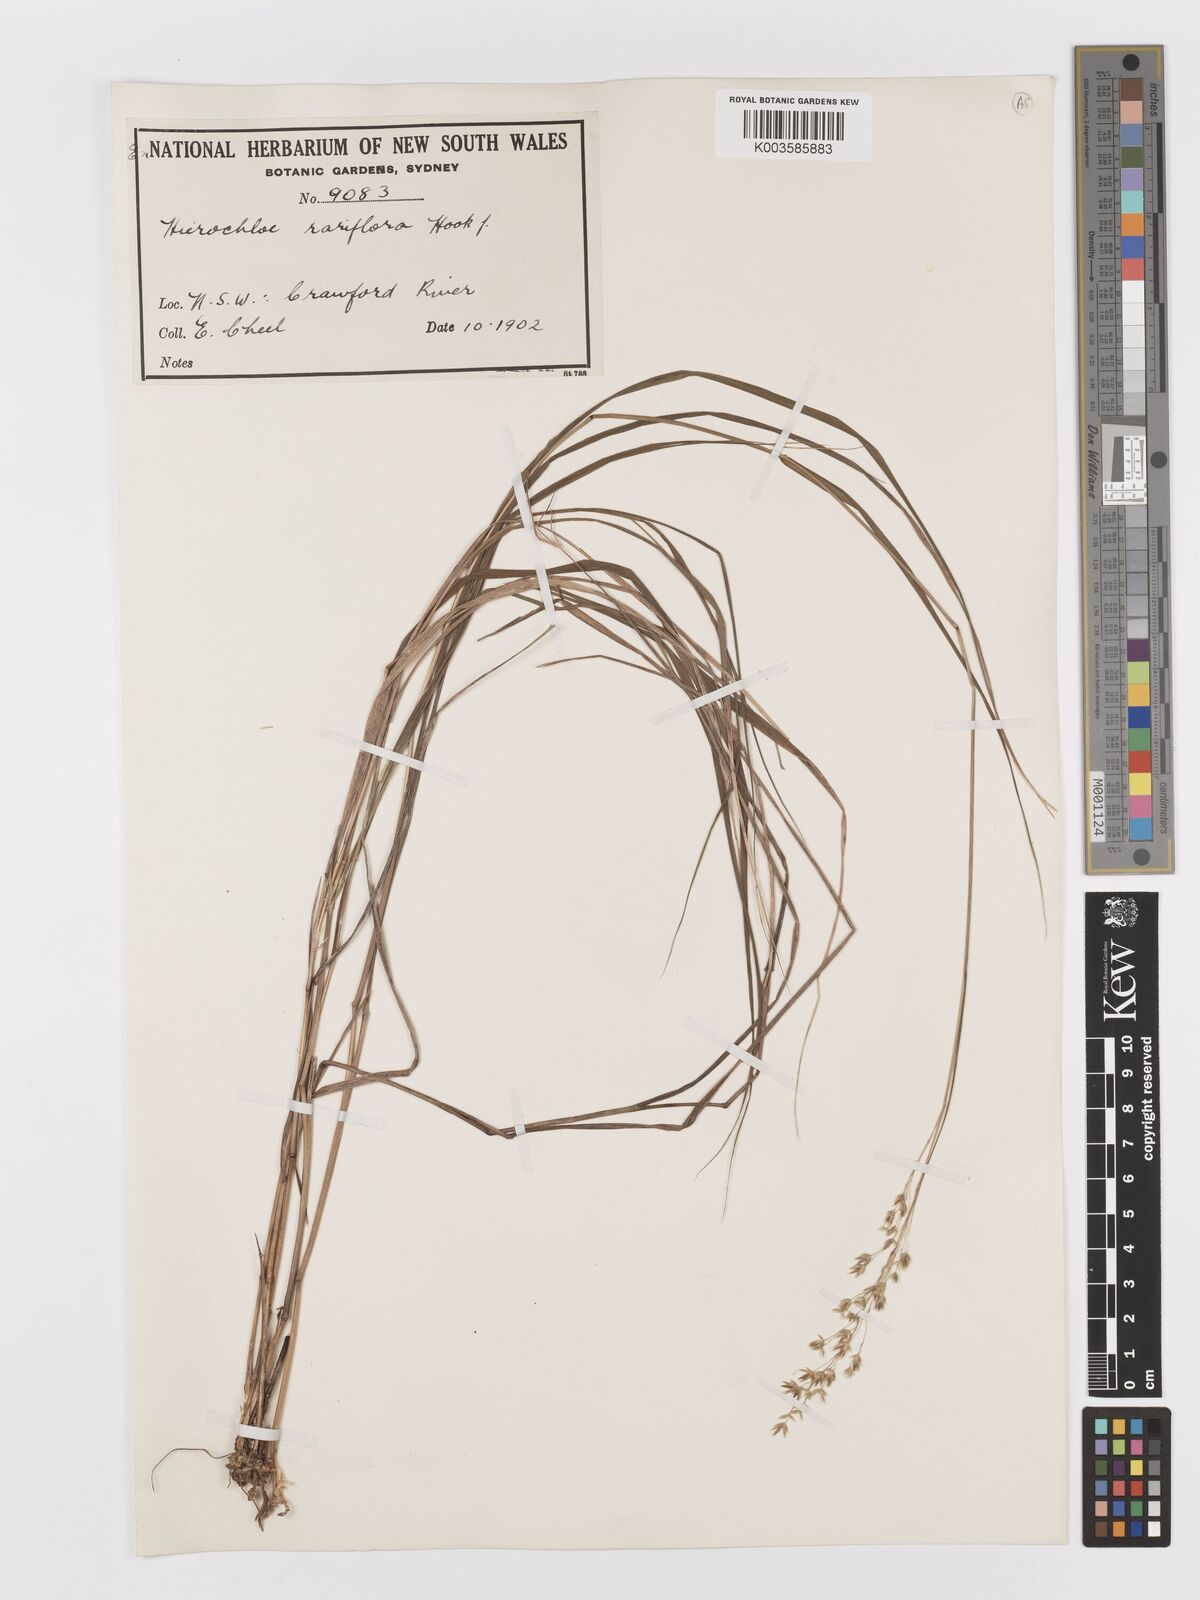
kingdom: Plantae
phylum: Tracheophyta
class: Liliopsida
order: Poales
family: Poaceae
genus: Anthoxanthum
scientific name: Anthoxanthum rariflorum
